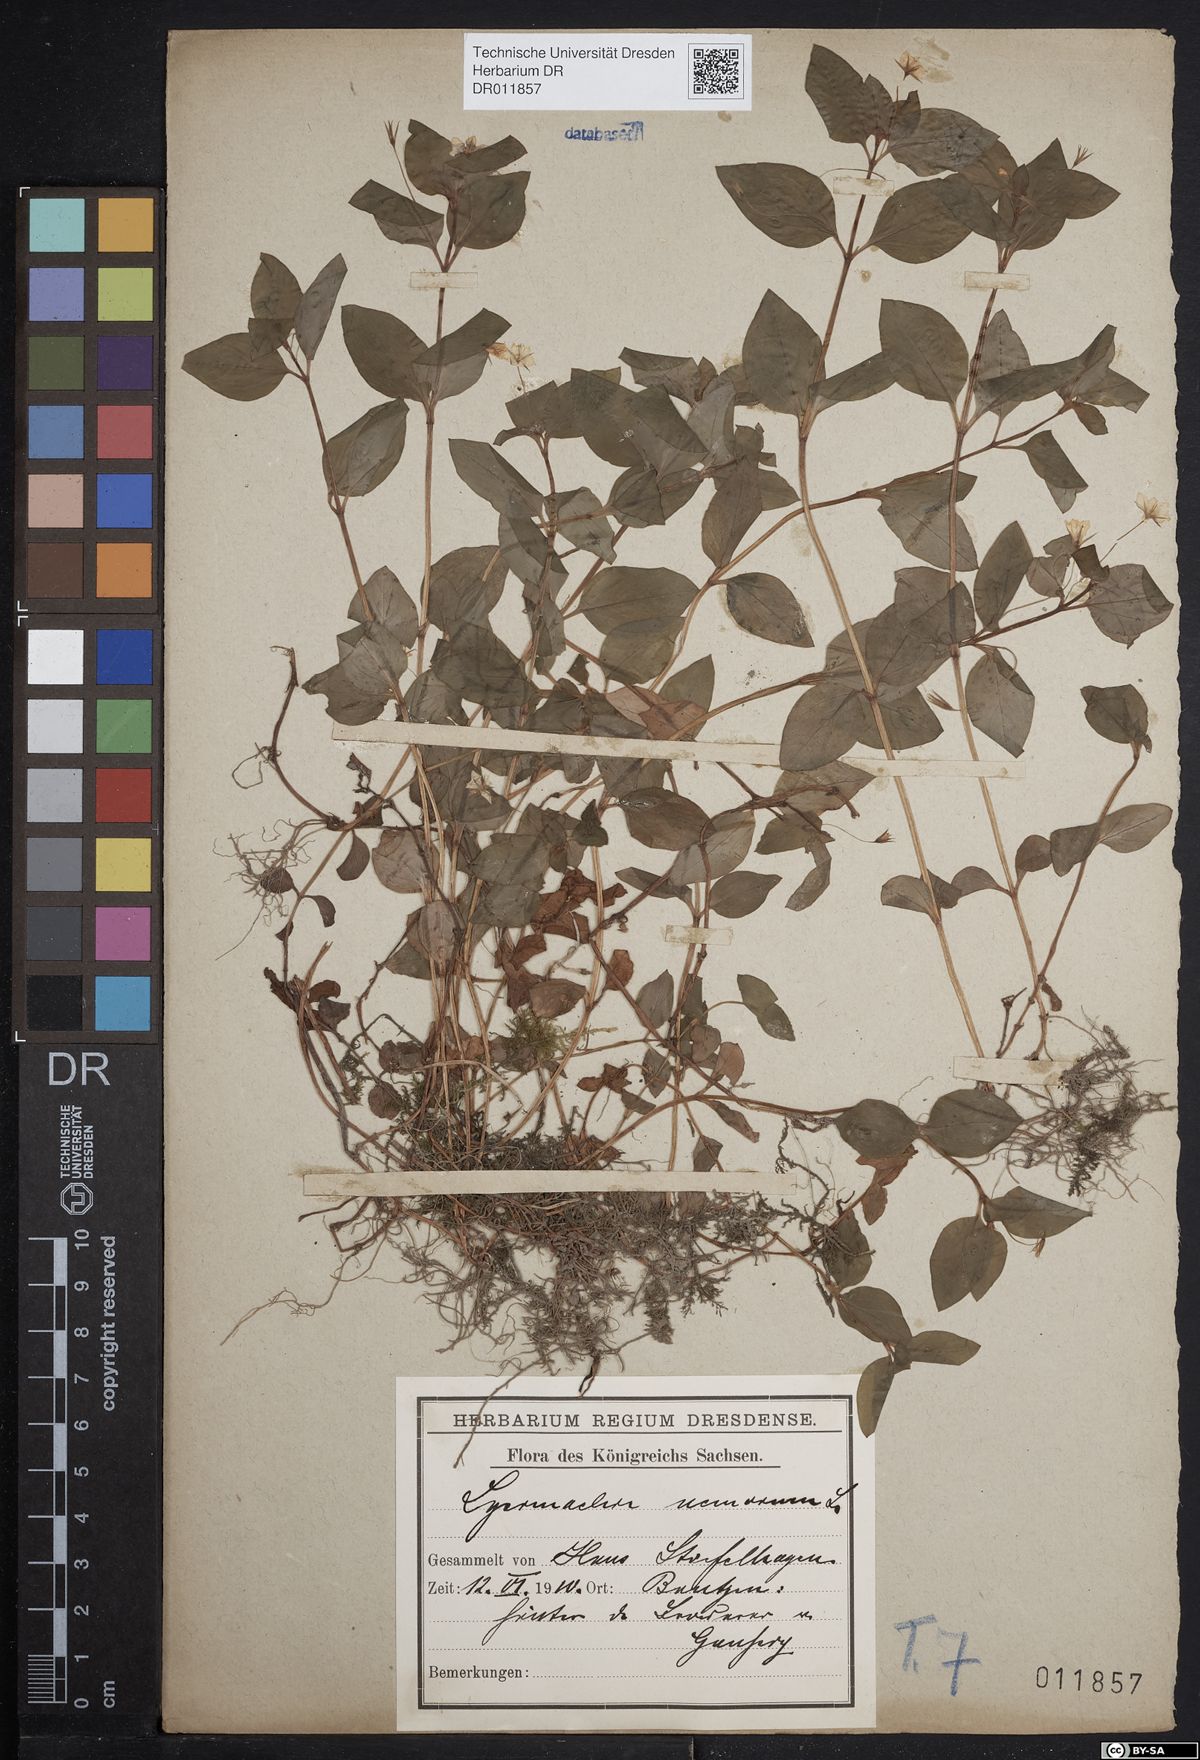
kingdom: Plantae
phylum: Tracheophyta
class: Magnoliopsida
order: Ericales
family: Primulaceae
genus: Lysimachia
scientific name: Lysimachia nemorum
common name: Yellow pimpernel
